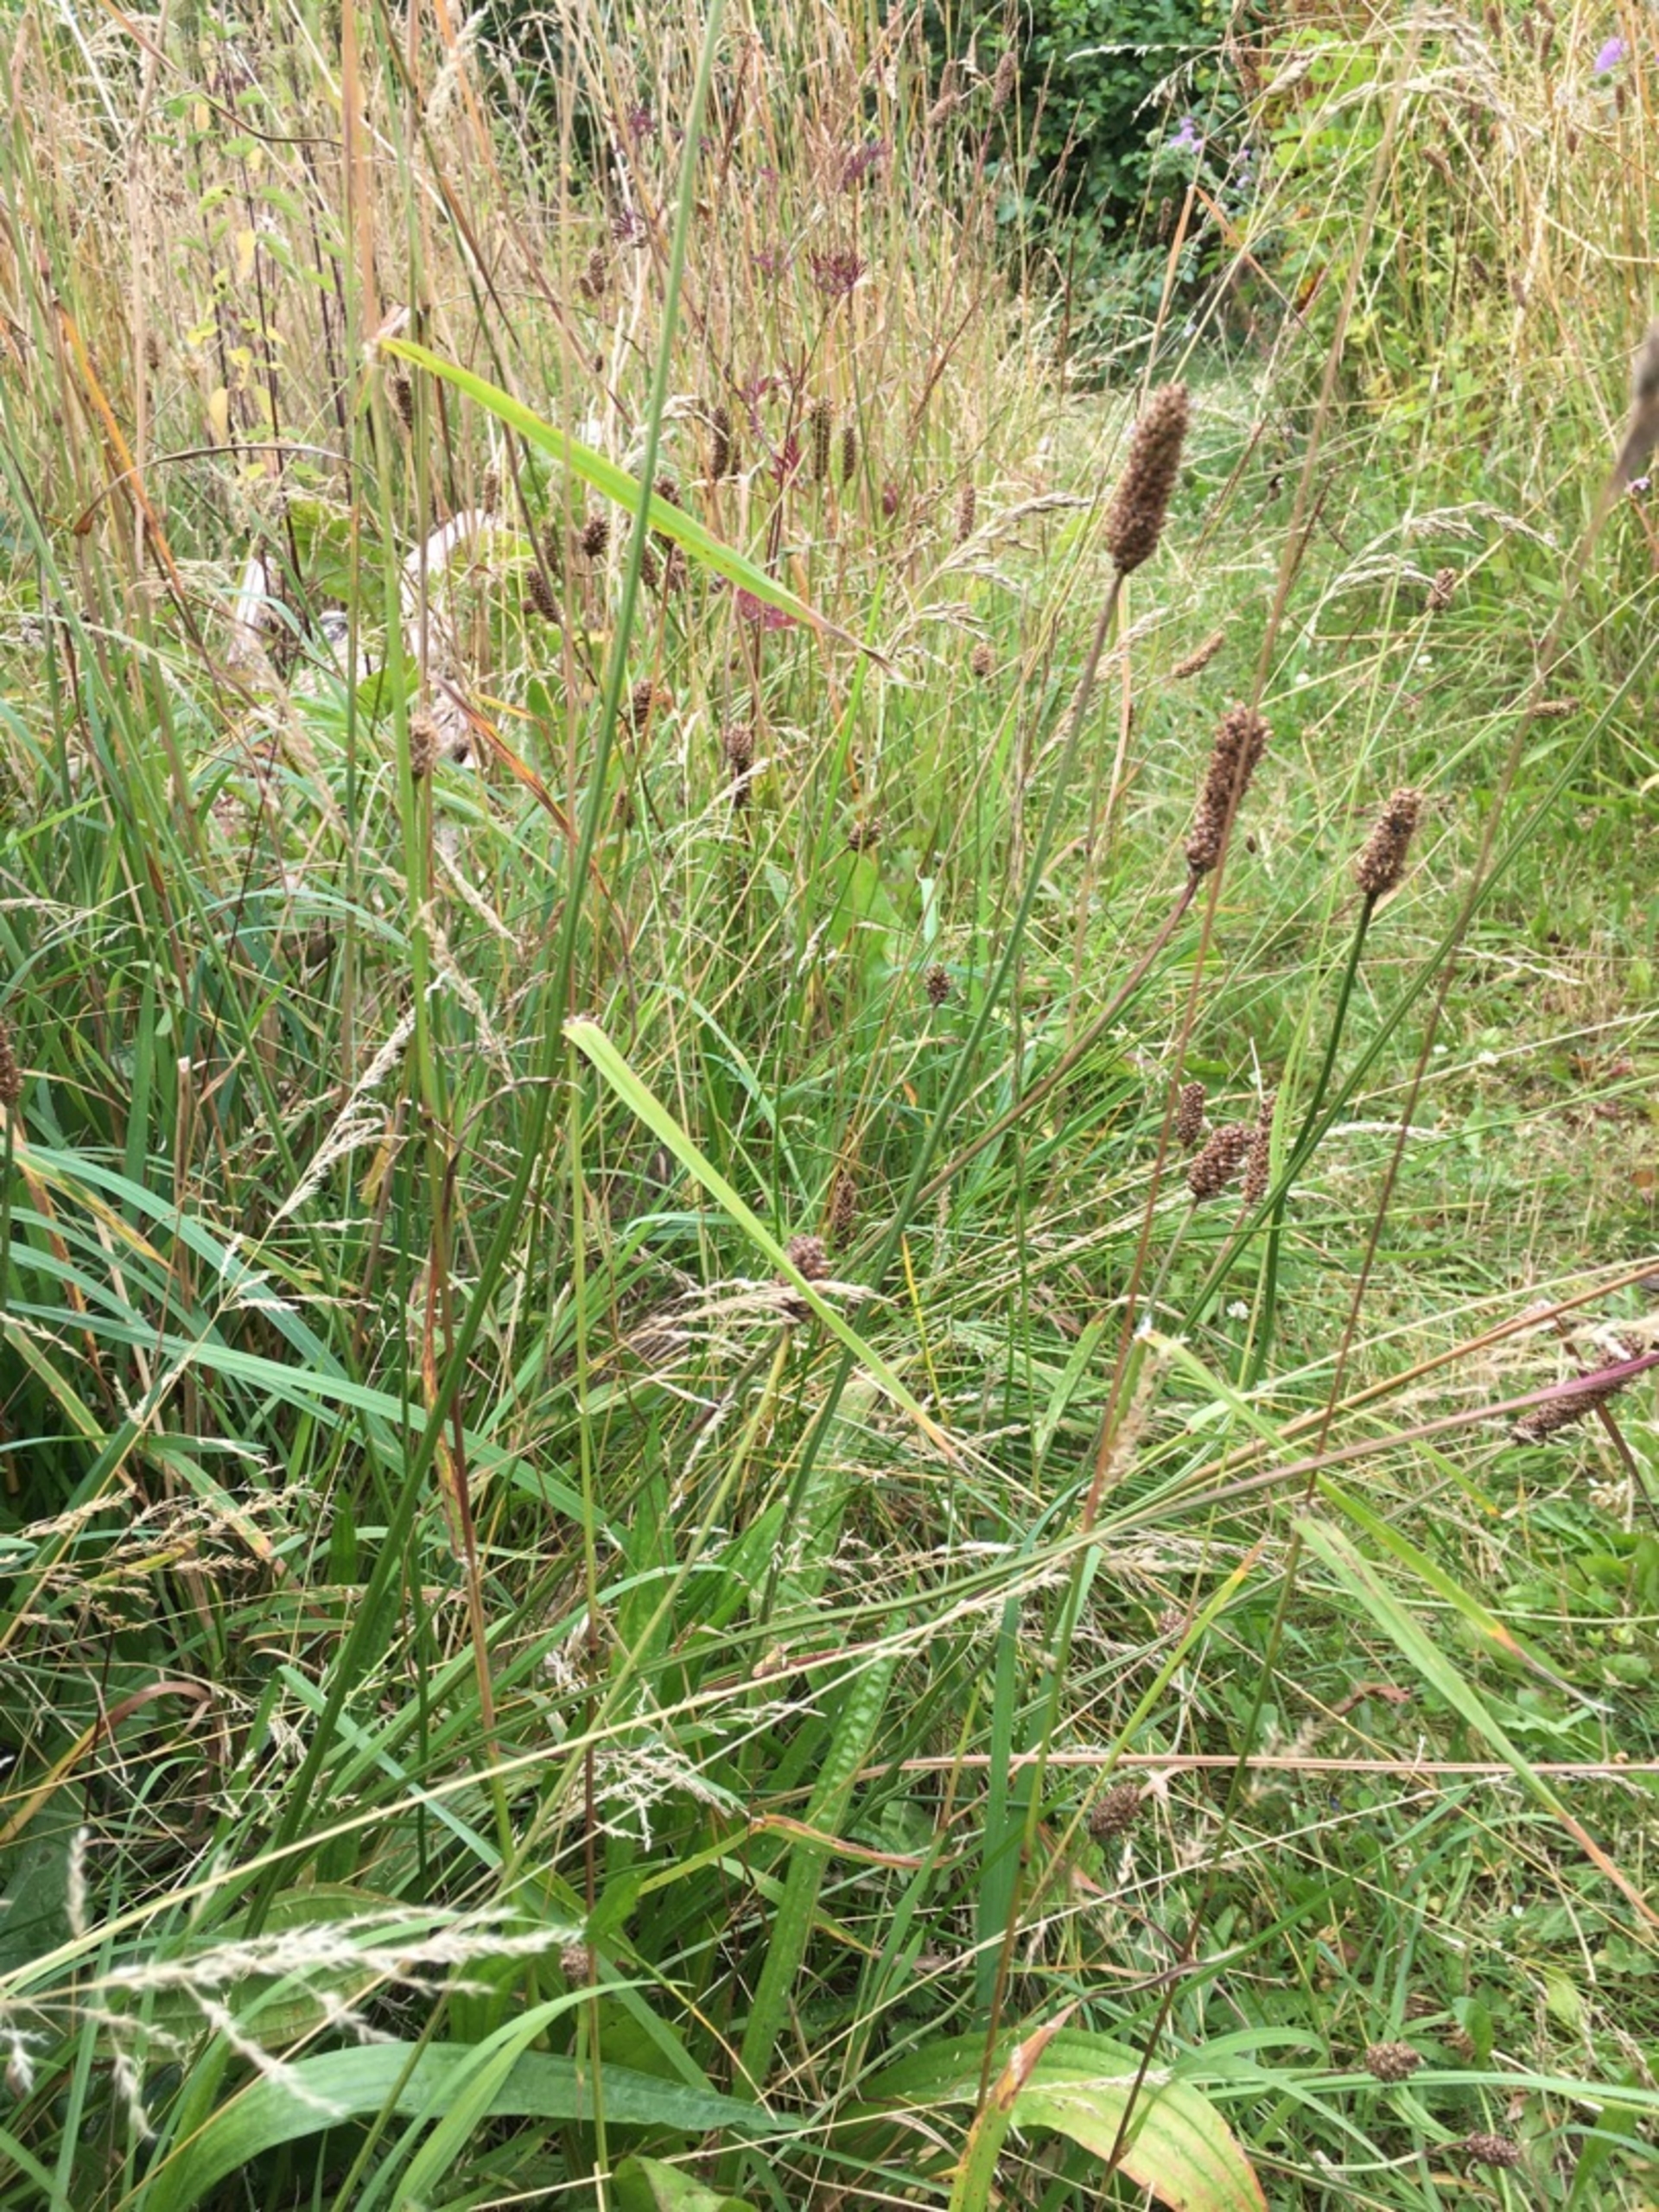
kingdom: Plantae
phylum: Tracheophyta
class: Magnoliopsida
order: Lamiales
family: Plantaginaceae
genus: Plantago
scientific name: Plantago lanceolata
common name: Lancet-vejbred
